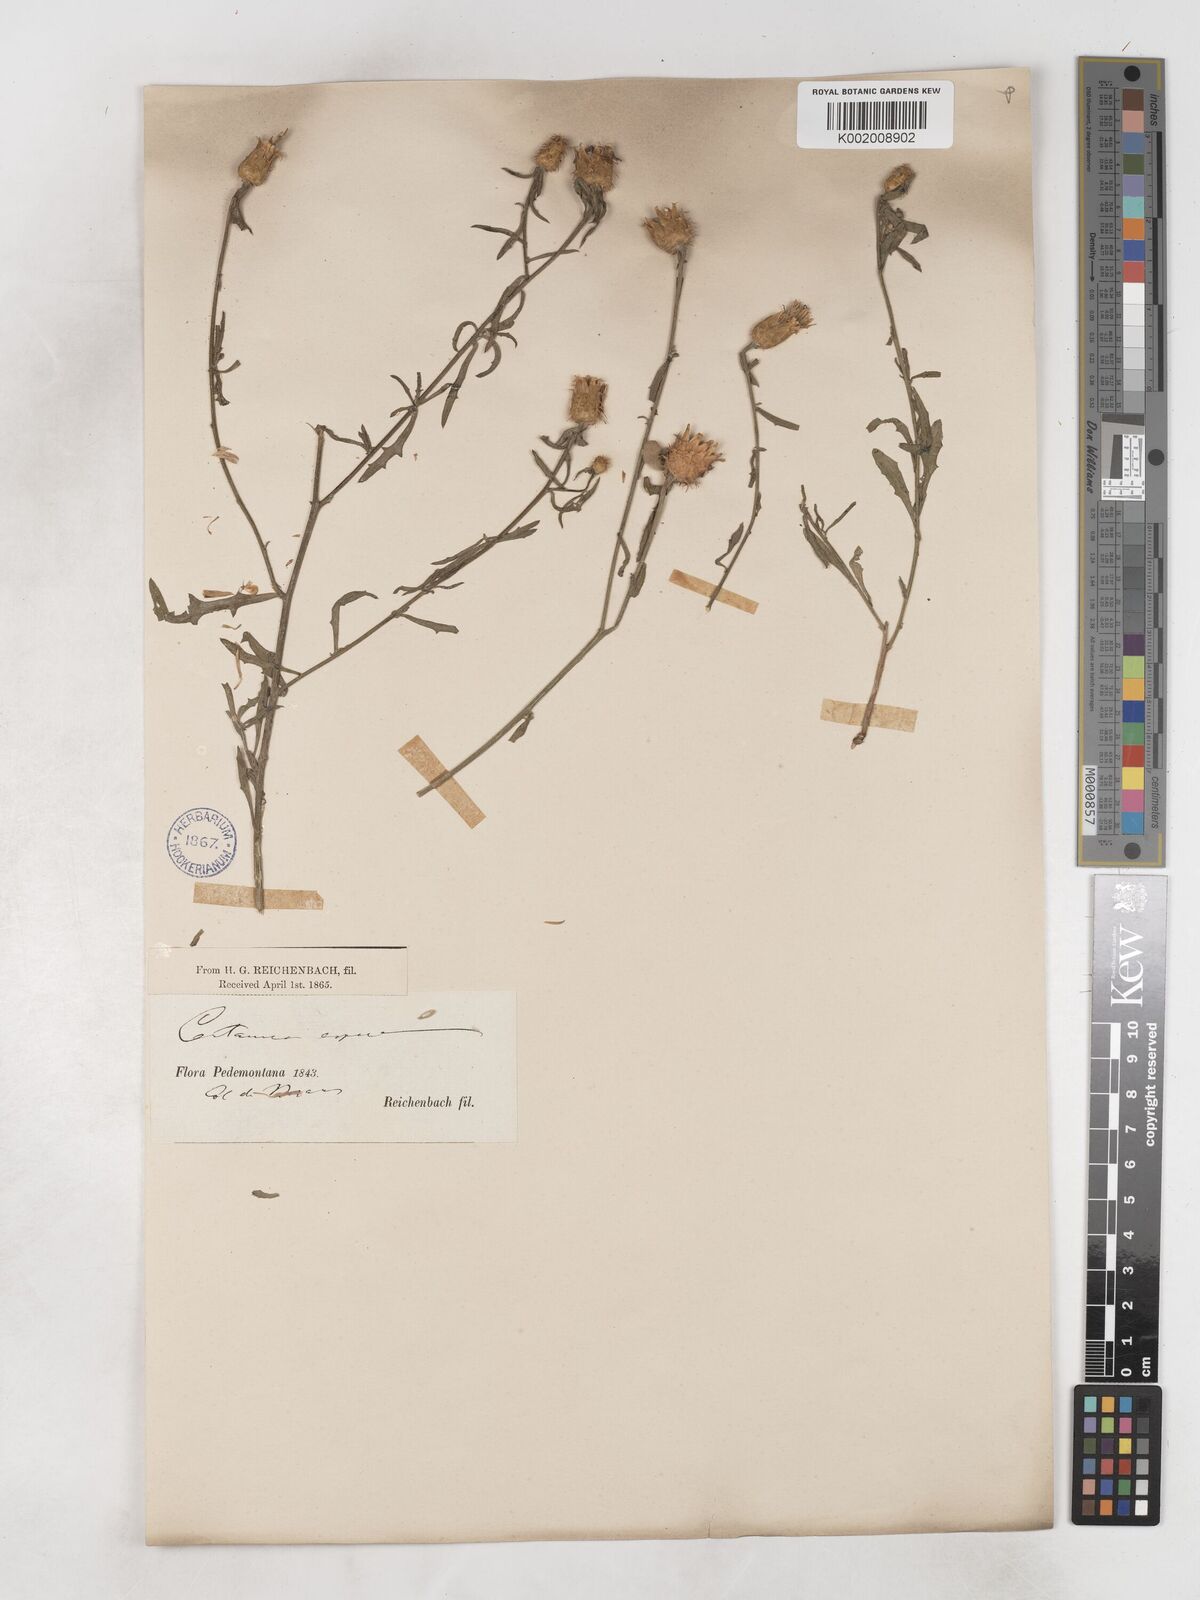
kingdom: Plantae
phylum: Tracheophyta
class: Magnoliopsida
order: Asterales
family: Asteraceae
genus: Centaurea
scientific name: Centaurea aspera
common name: Rough star-thistle
